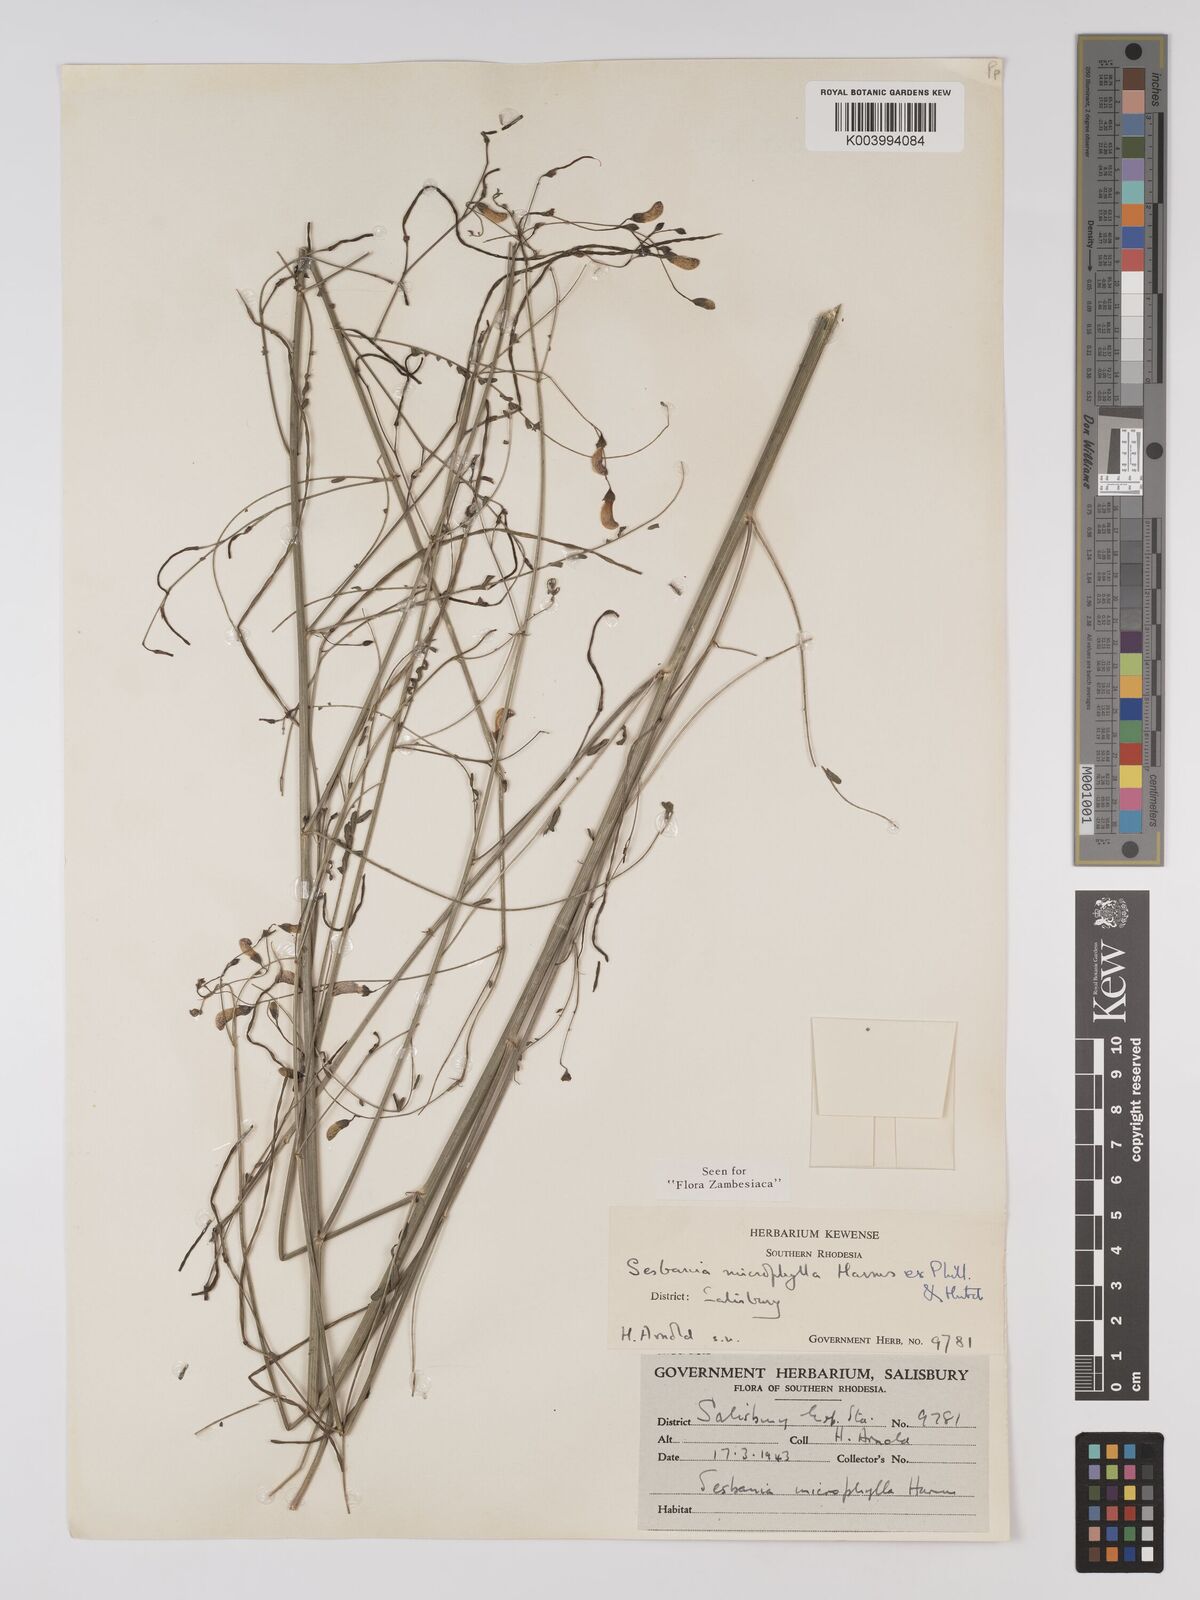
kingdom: Plantae
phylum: Tracheophyta
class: Magnoliopsida
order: Fabales
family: Fabaceae
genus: Sesbania
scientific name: Sesbania microphylla
